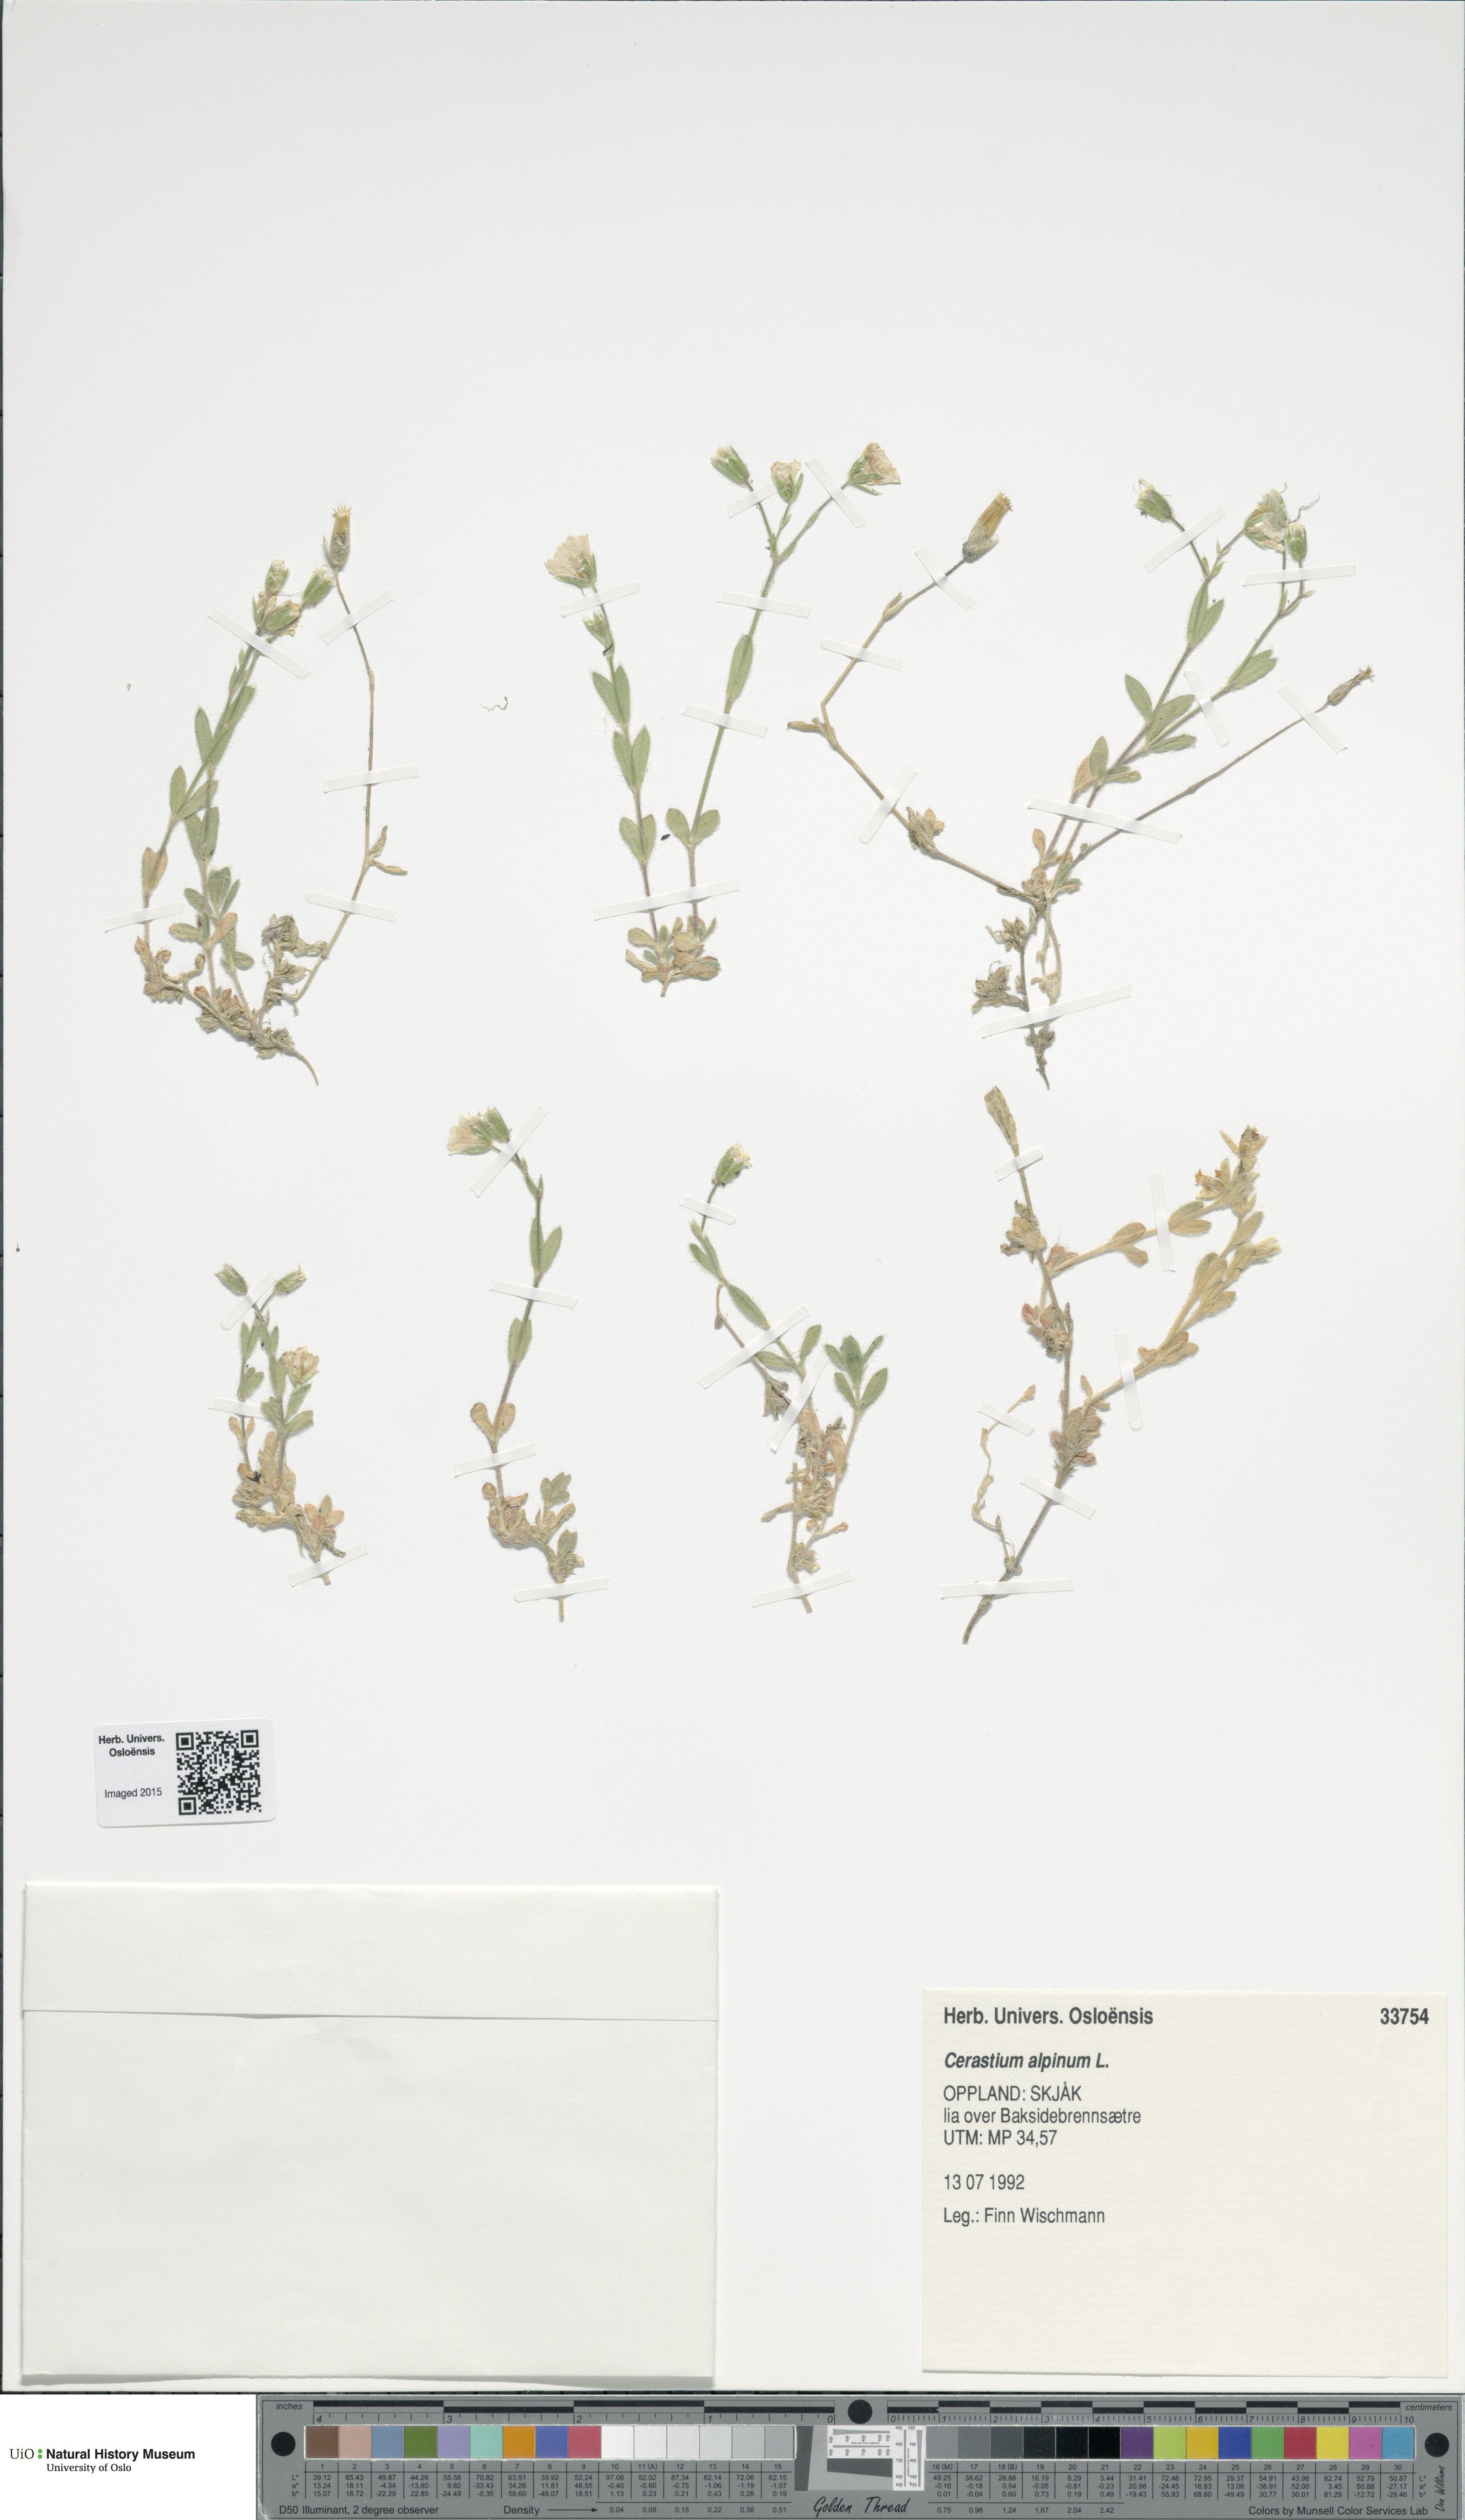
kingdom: Plantae
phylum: Tracheophyta
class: Magnoliopsida
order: Caryophyllales
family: Caryophyllaceae
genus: Cerastium
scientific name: Cerastium alpinum
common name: Alpine mouse-ear
